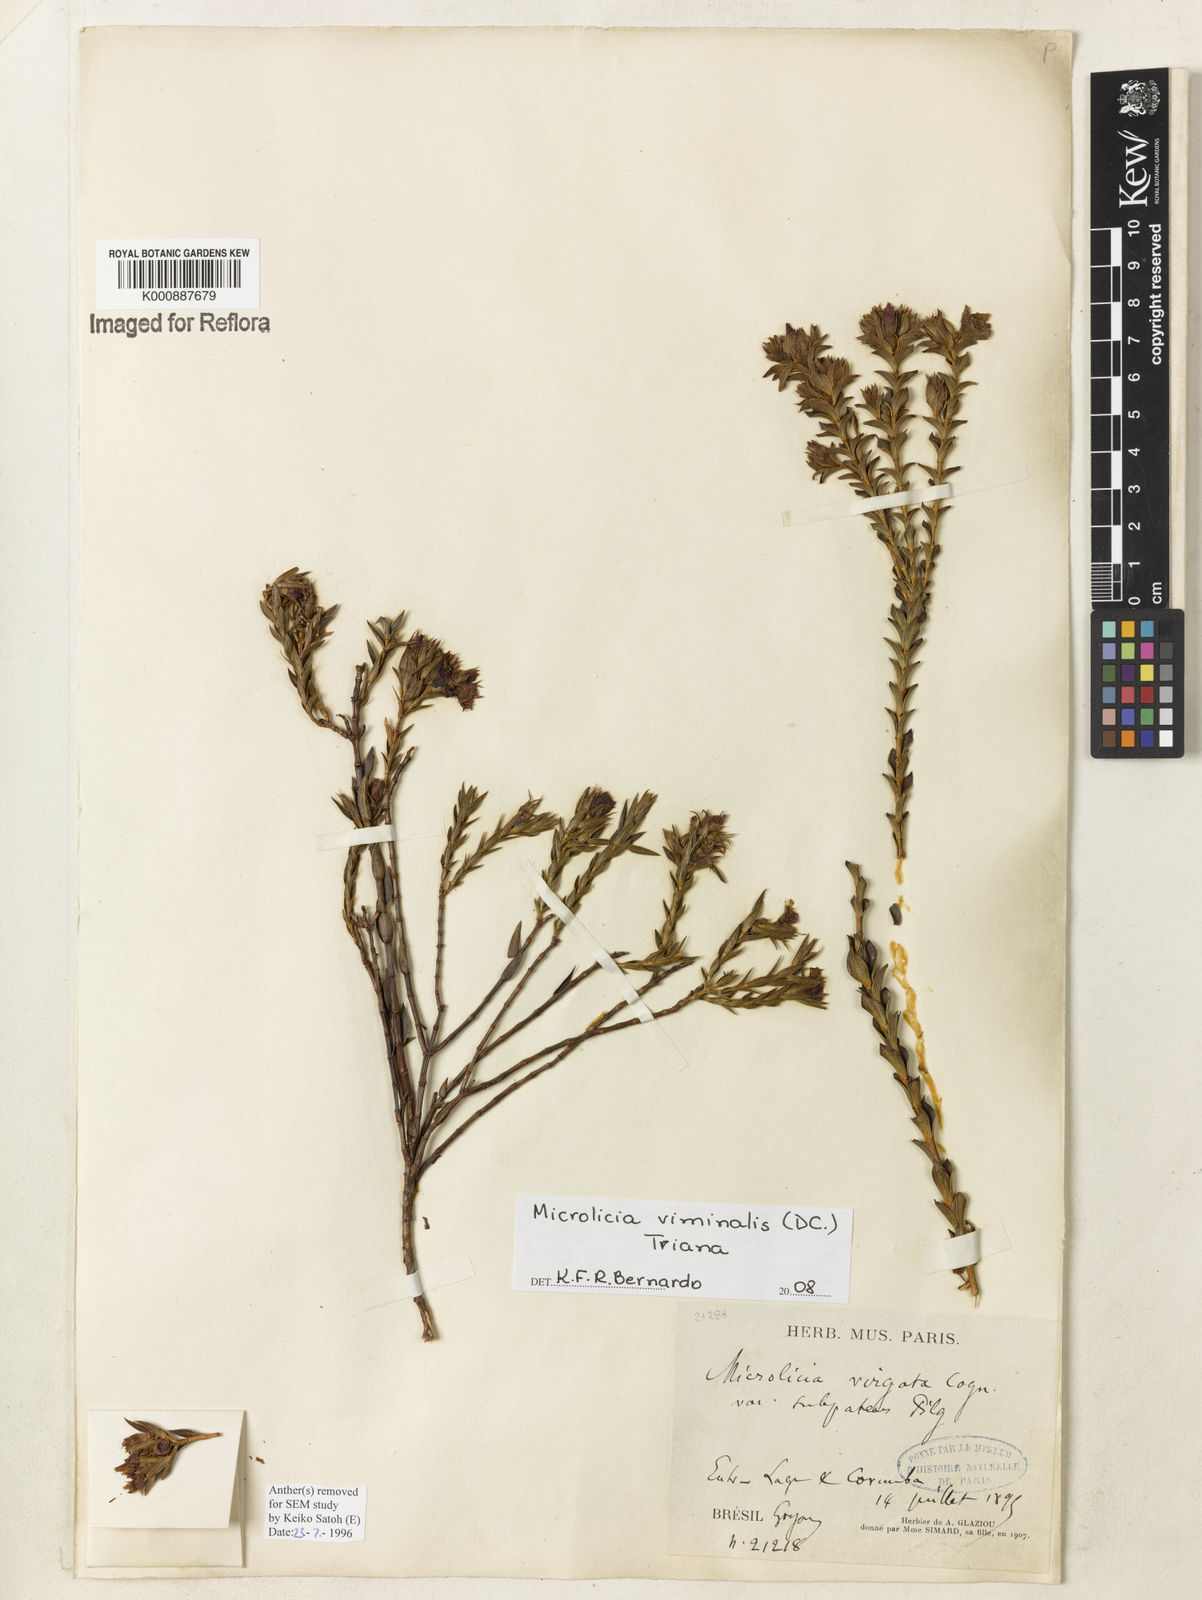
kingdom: Plantae
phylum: Tracheophyta
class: Magnoliopsida
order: Myrtales
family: Melastomataceae
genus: Microlicia
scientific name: Microlicia viminalis
